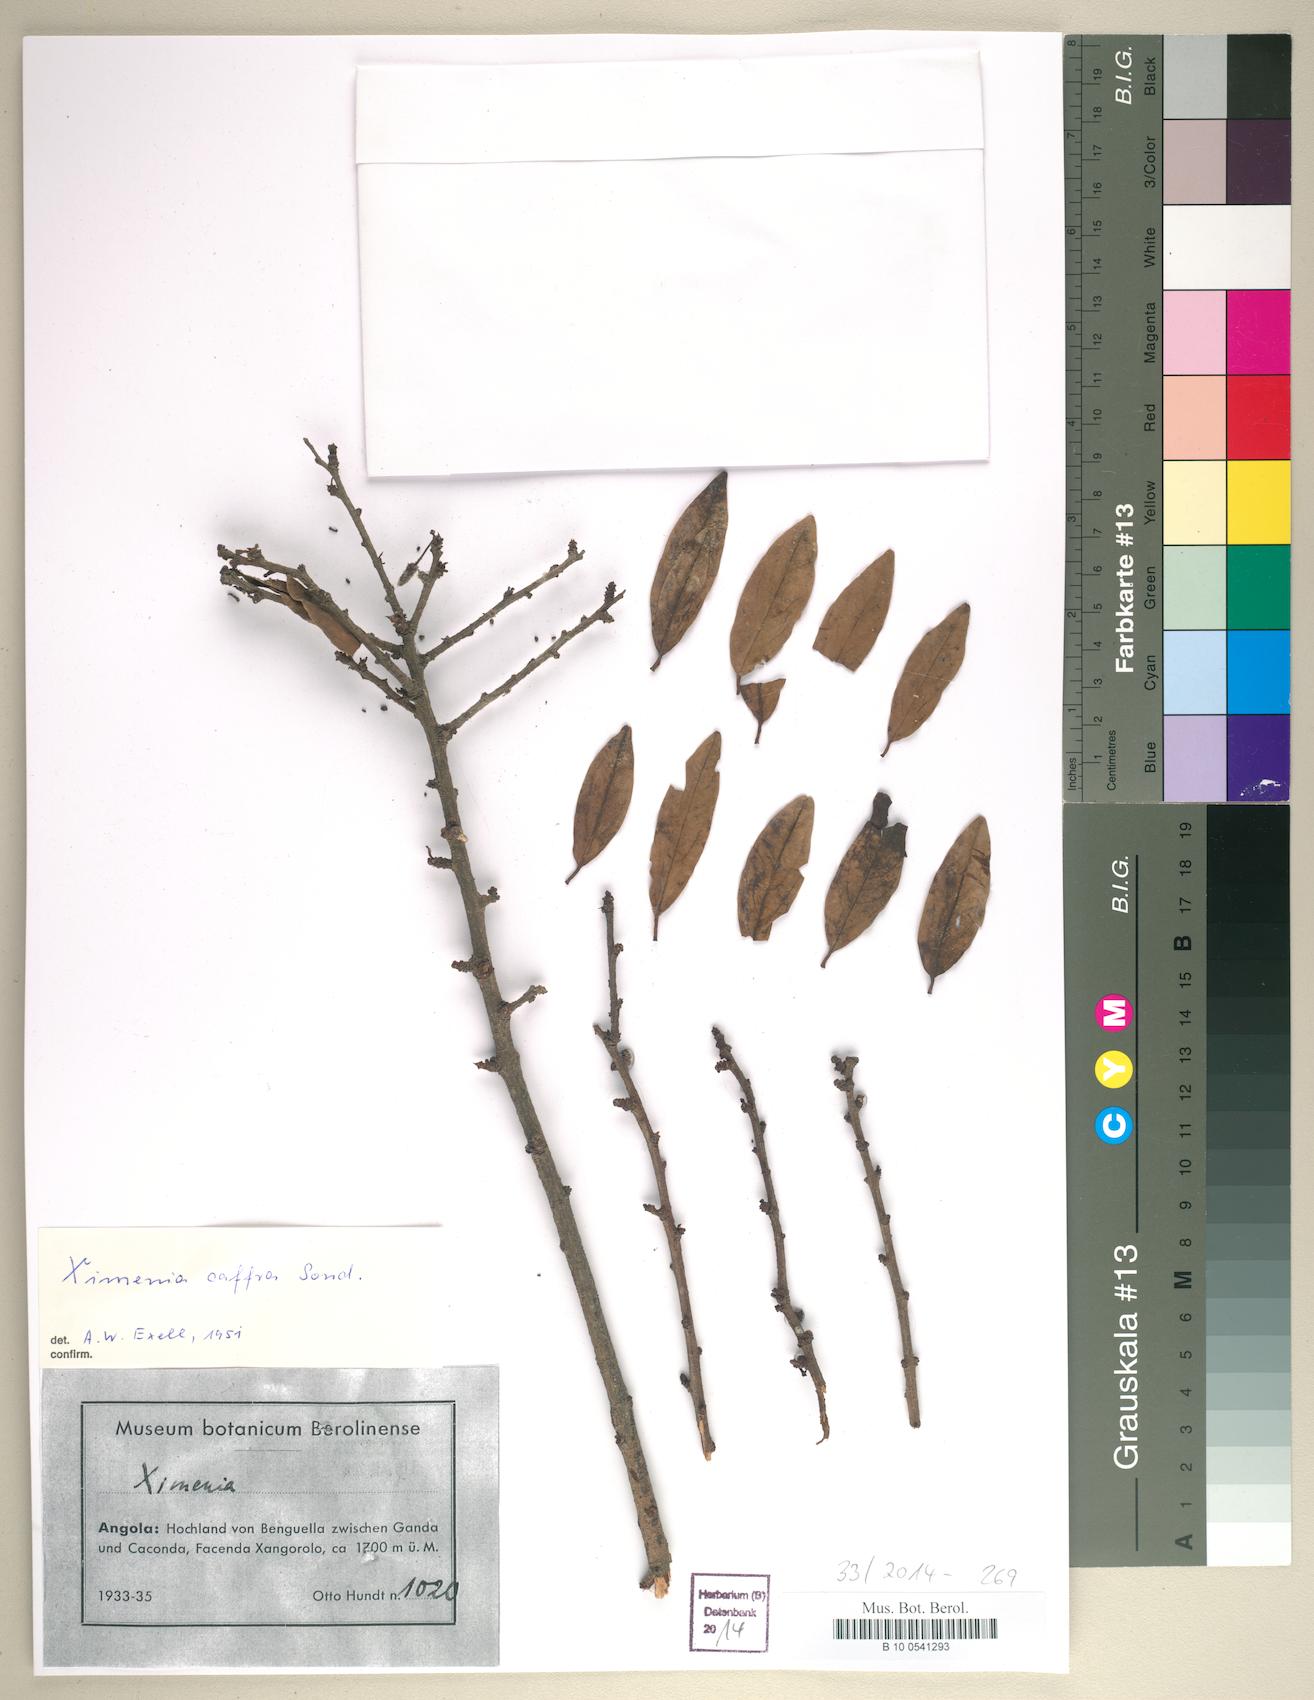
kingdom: Plantae
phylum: Tracheophyta
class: Magnoliopsida
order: Santalales
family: Ximeniaceae
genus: Ximenia
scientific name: Ximenia caffra
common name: Large sourplum
